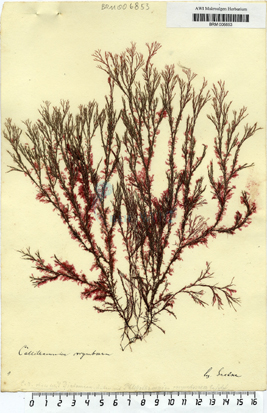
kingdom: Plantae
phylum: Rhodophyta
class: Florideophyceae
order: Ceramiales
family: Callithamniaceae
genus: Callithamnion
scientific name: Callithamnion corymbosum
